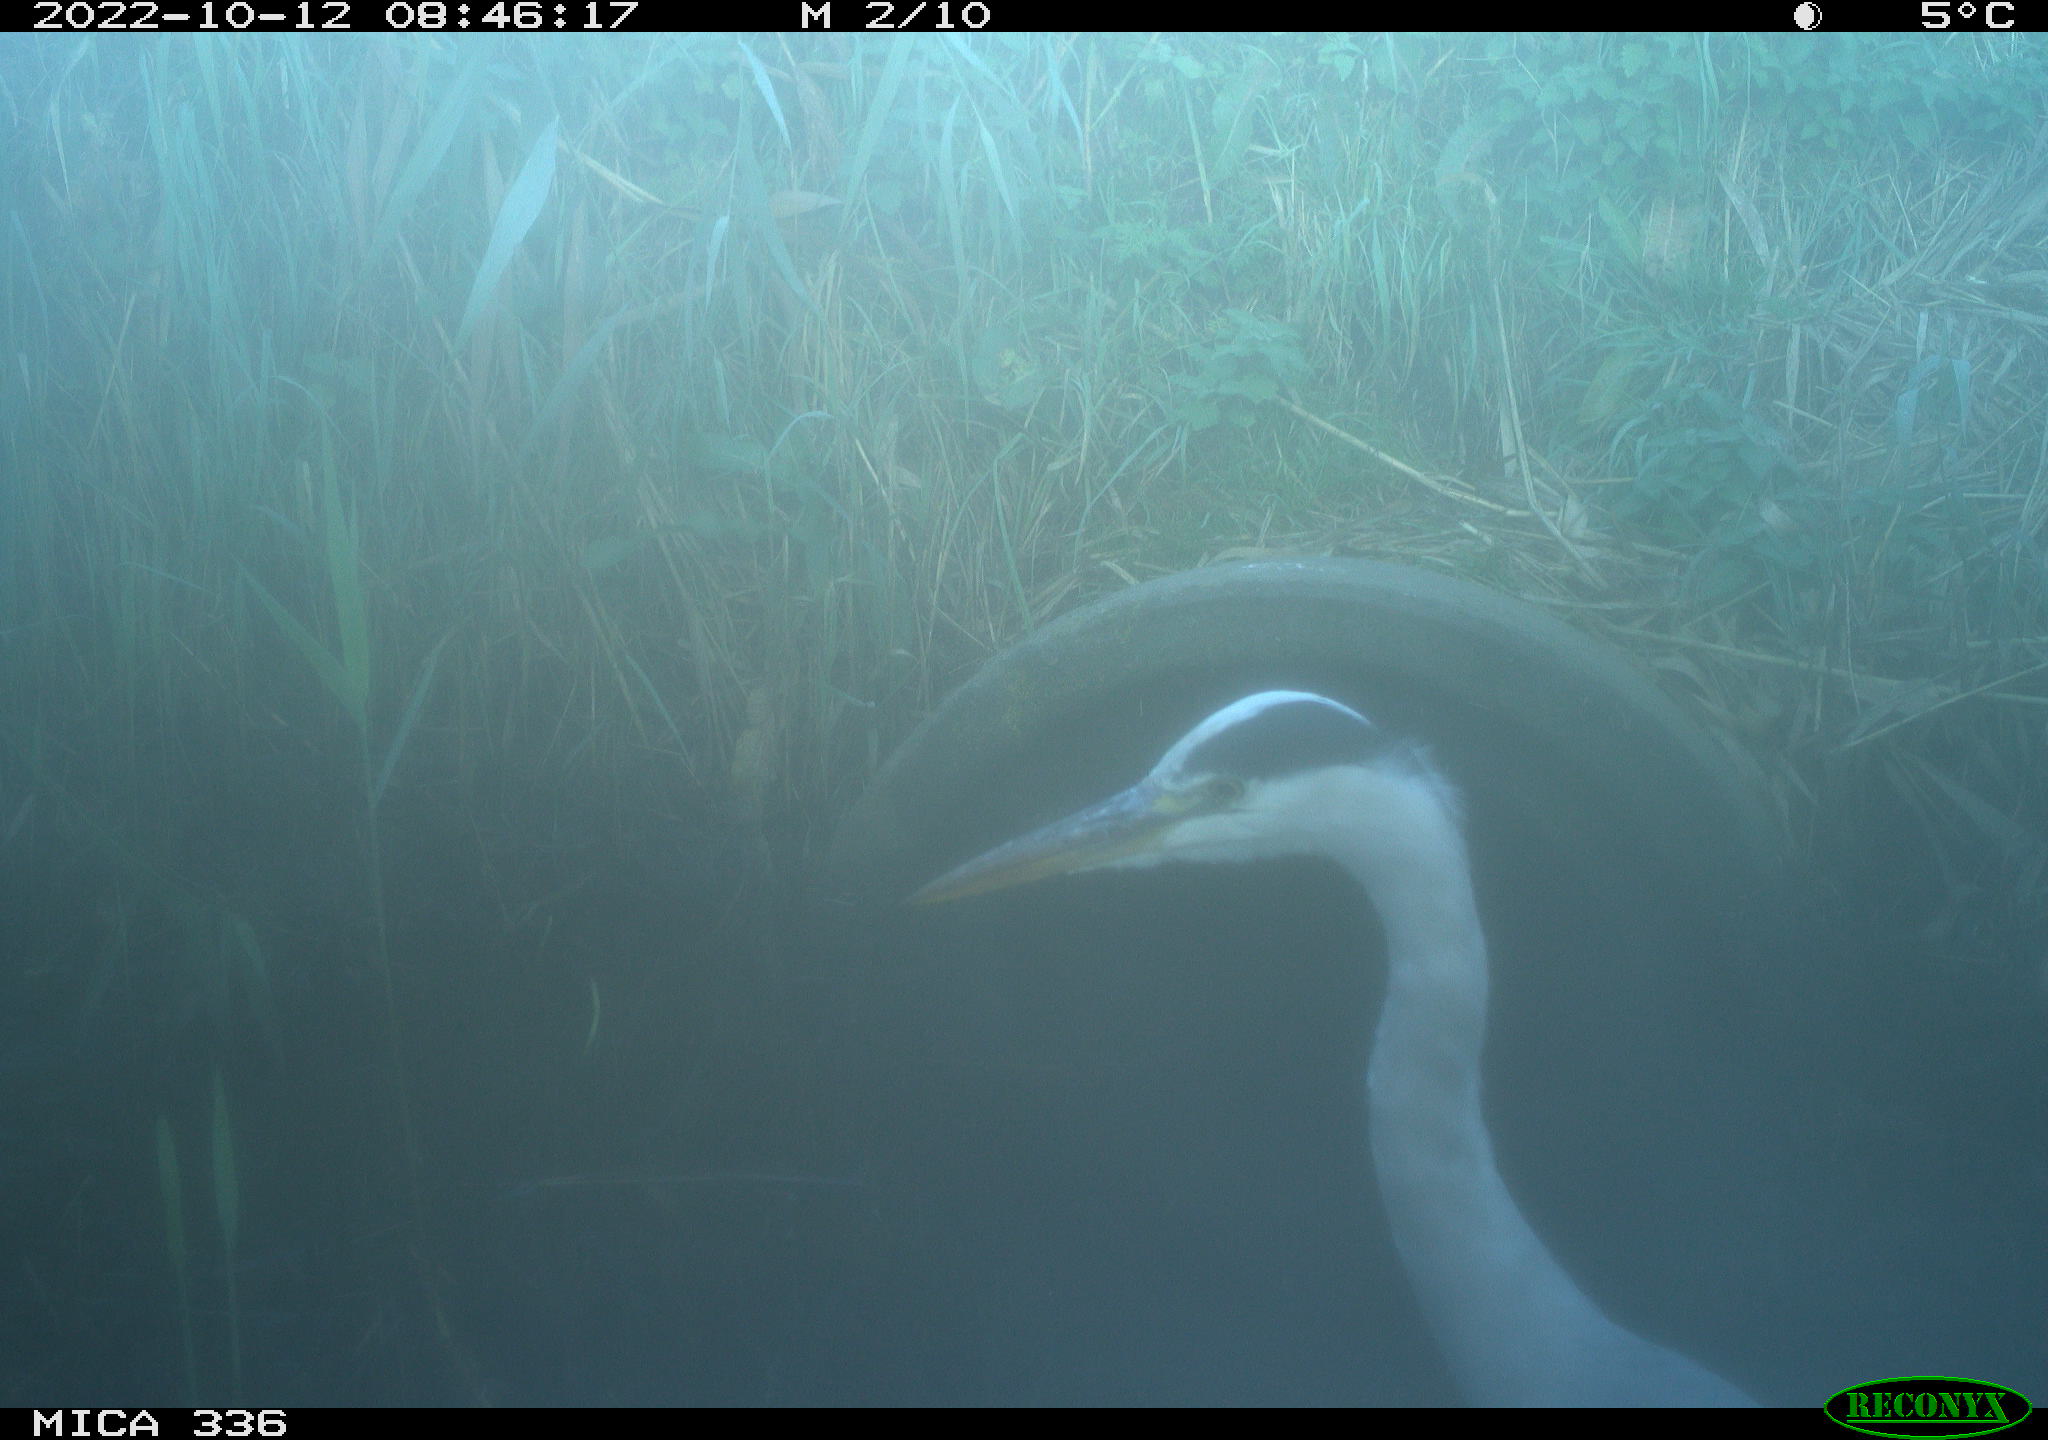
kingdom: Animalia
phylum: Chordata
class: Aves
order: Pelecaniformes
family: Ardeidae
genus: Ardea
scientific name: Ardea cinerea
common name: Grey heron
